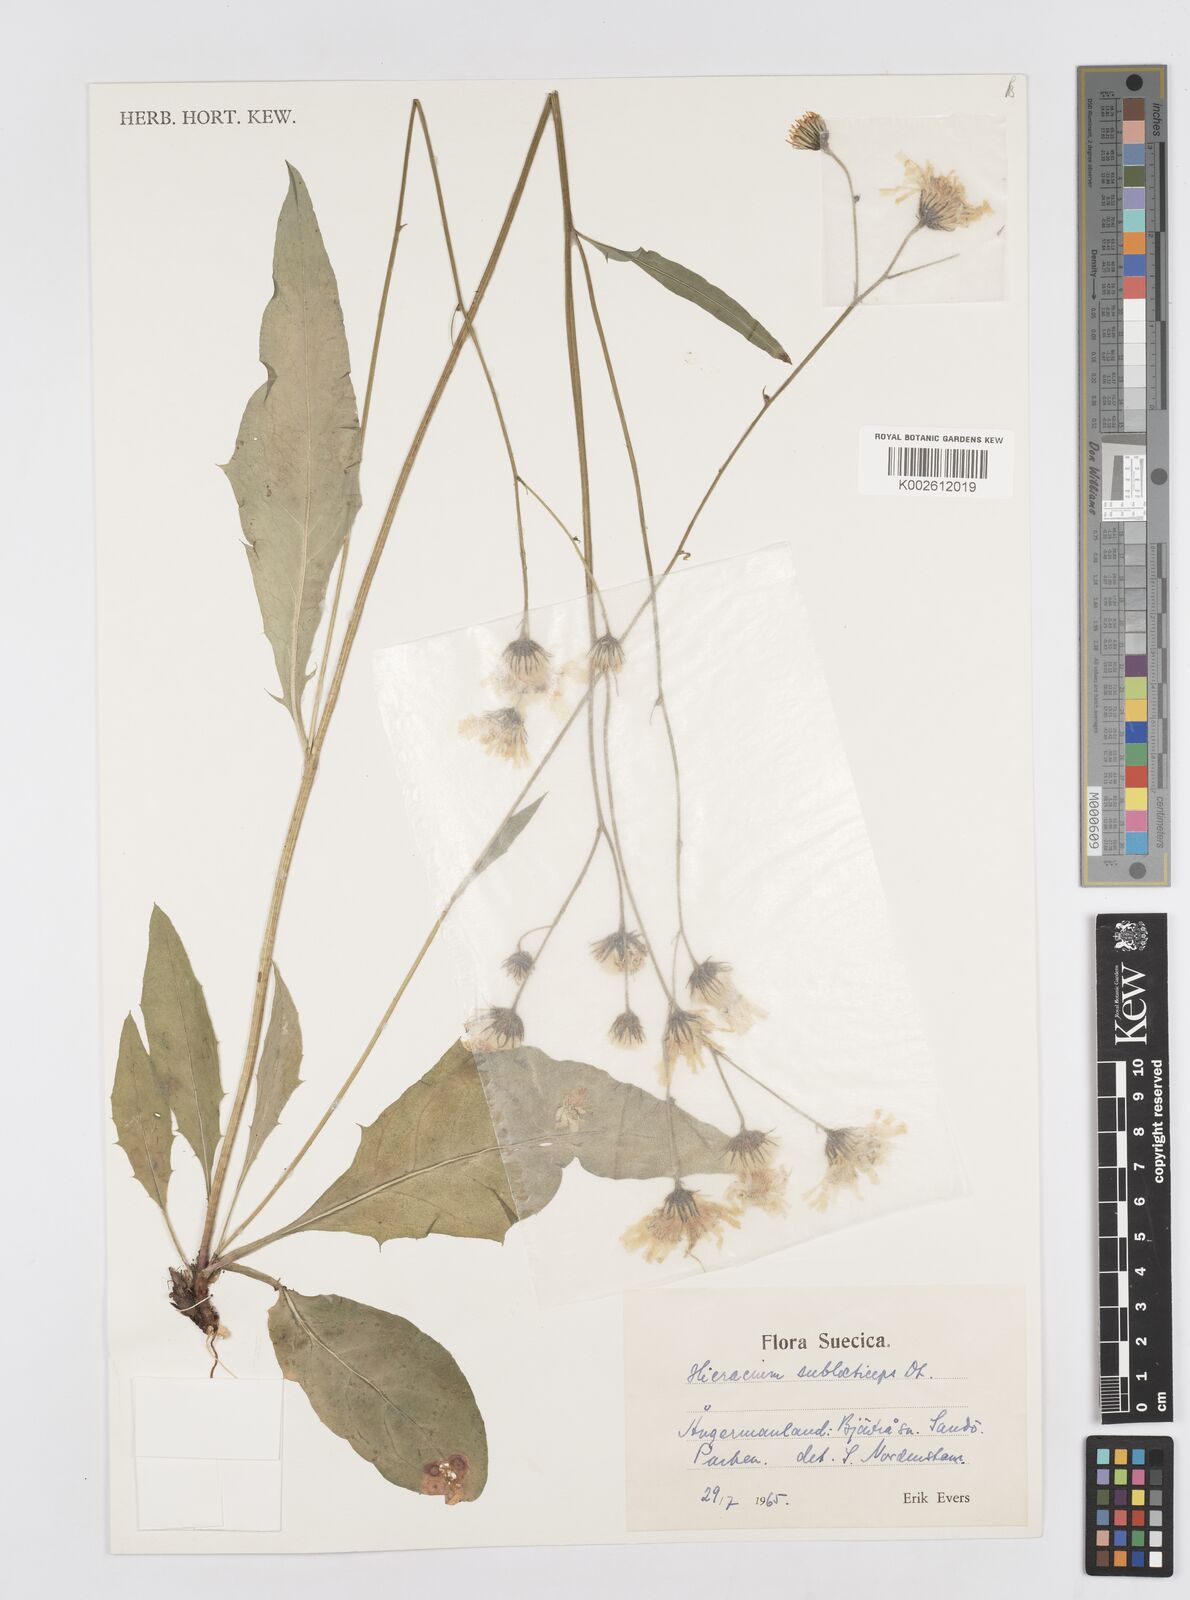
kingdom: Plantae
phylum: Tracheophyta
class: Magnoliopsida
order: Asterales
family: Asteraceae
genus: Hieracium
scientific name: Hieracium
